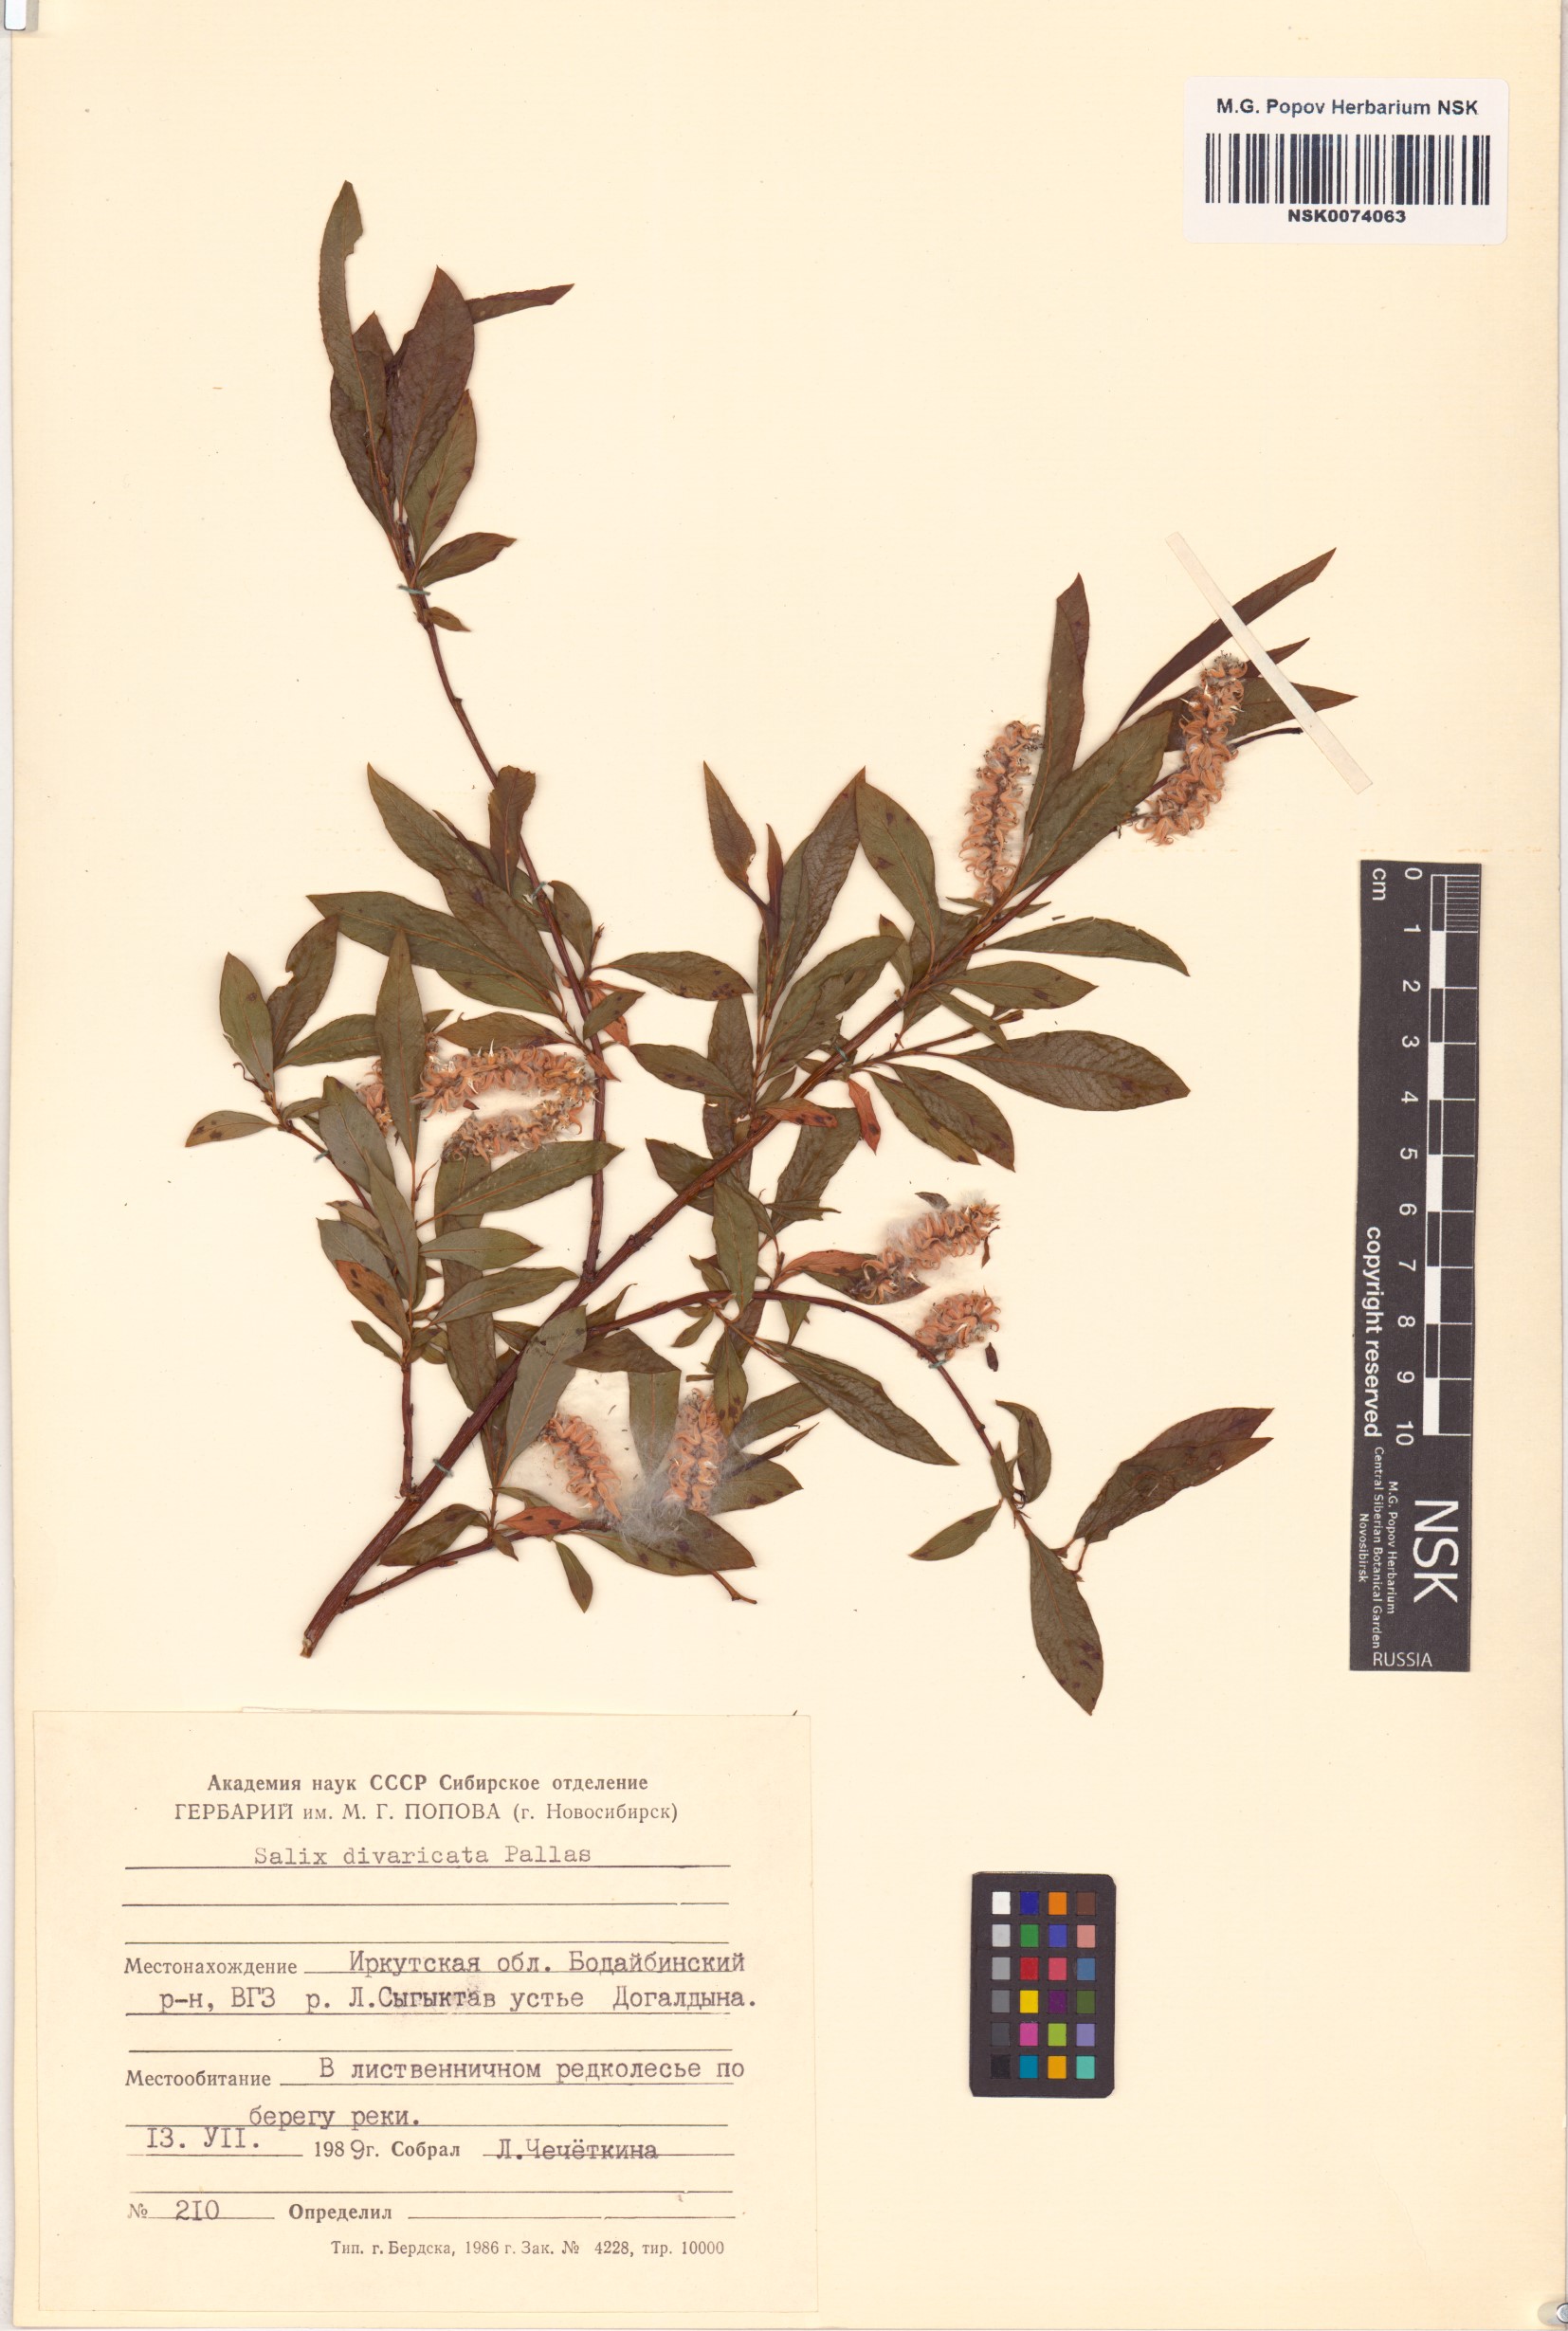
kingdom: Plantae
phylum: Tracheophyta
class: Magnoliopsida
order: Malpighiales
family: Salicaceae
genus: Salix
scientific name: Salix divaricata
